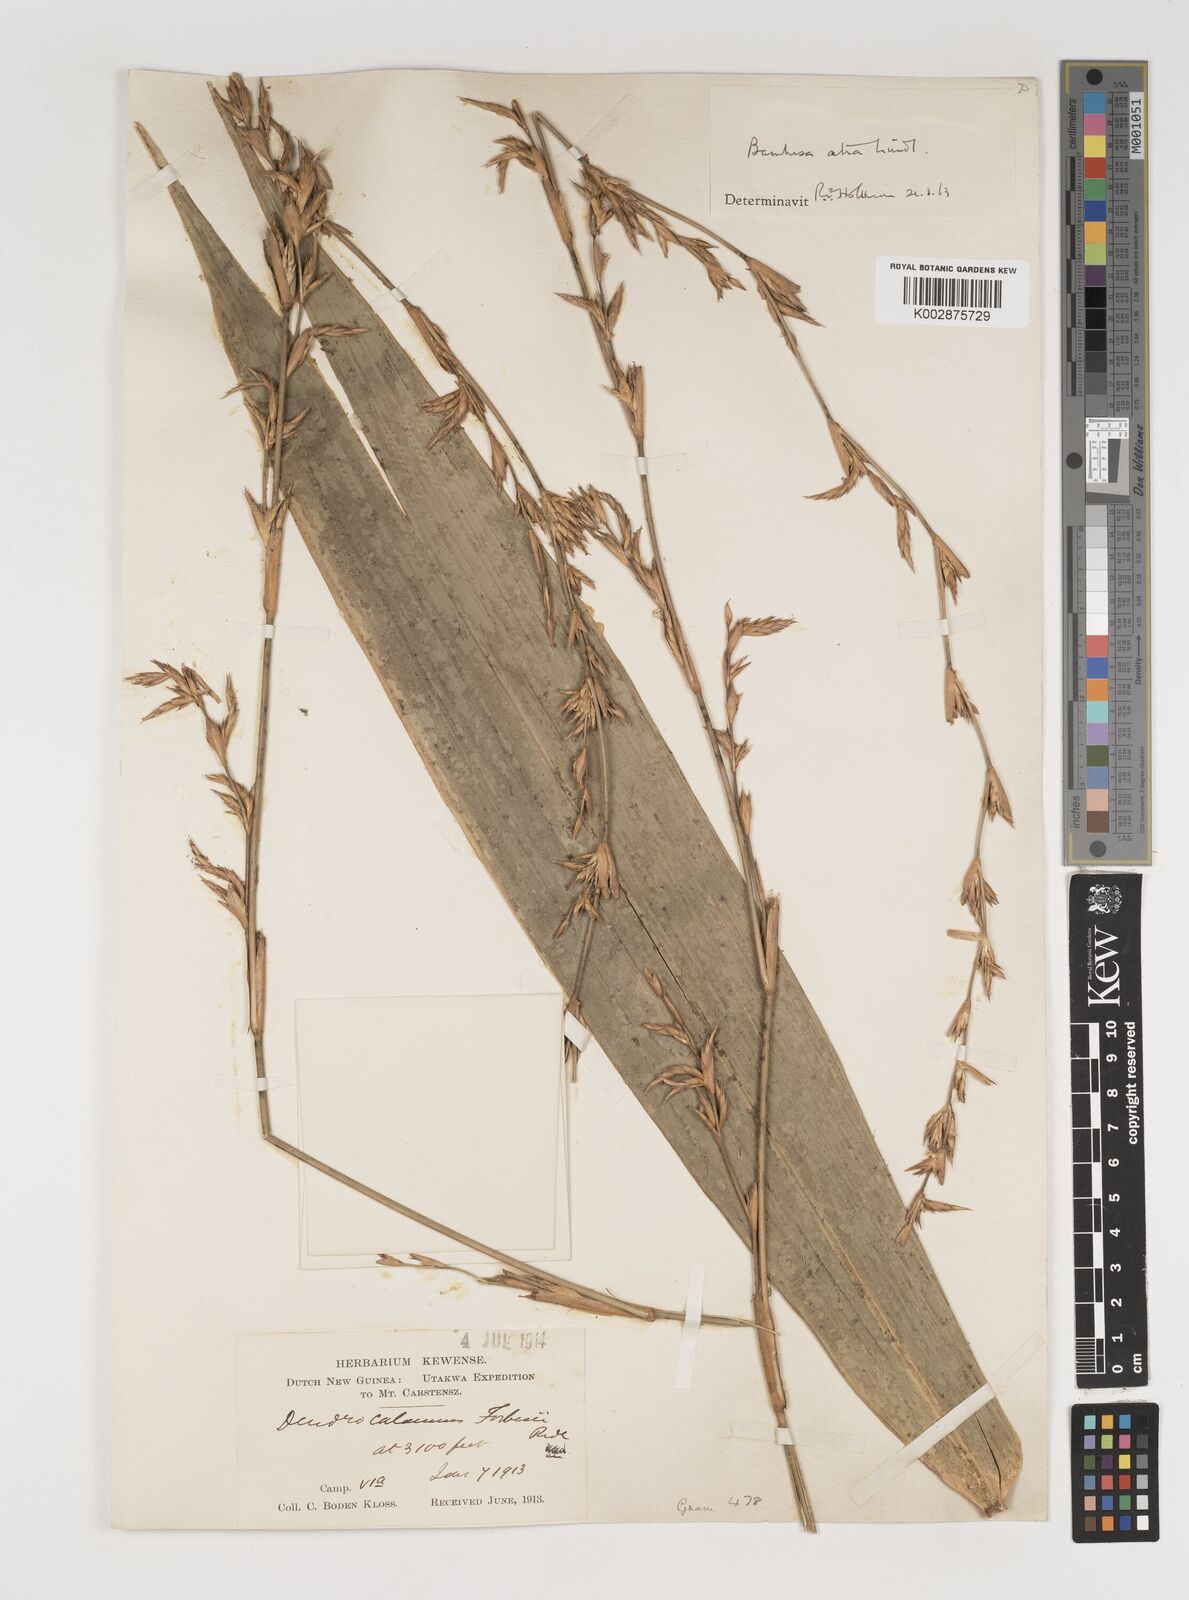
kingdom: Plantae
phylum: Tracheophyta
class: Liliopsida
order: Poales
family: Poaceae
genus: Neololeba
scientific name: Neololeba atra
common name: Cape bamboo
